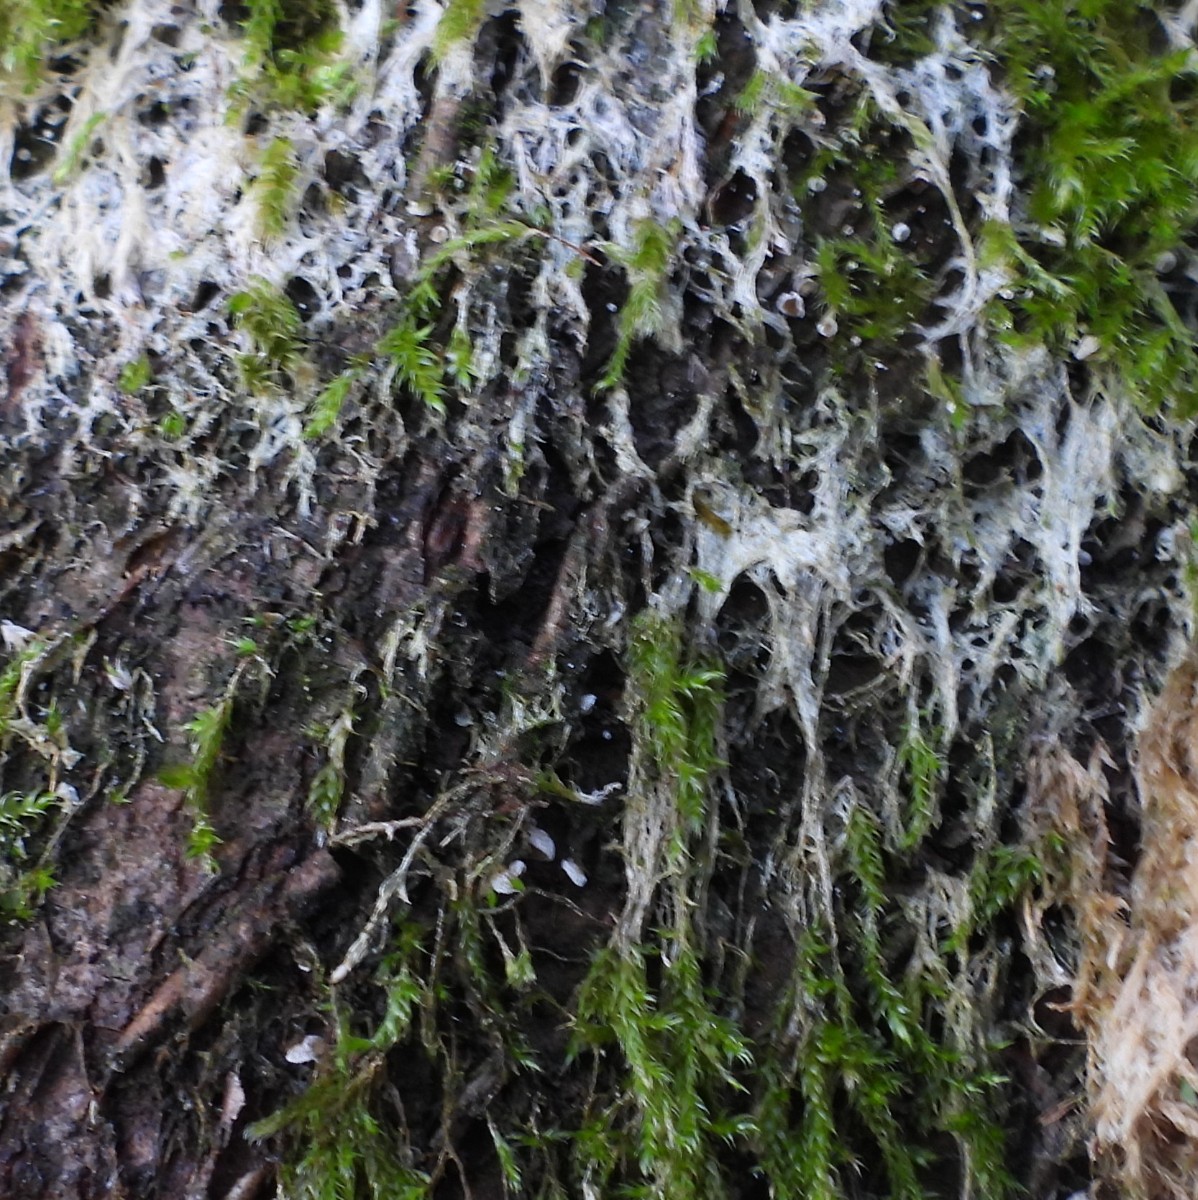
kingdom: Fungi
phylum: Basidiomycota
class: Agaricomycetes
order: Agaricales
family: Chromocyphellaceae
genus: Chromocyphella
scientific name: Chromocyphella muscicola
